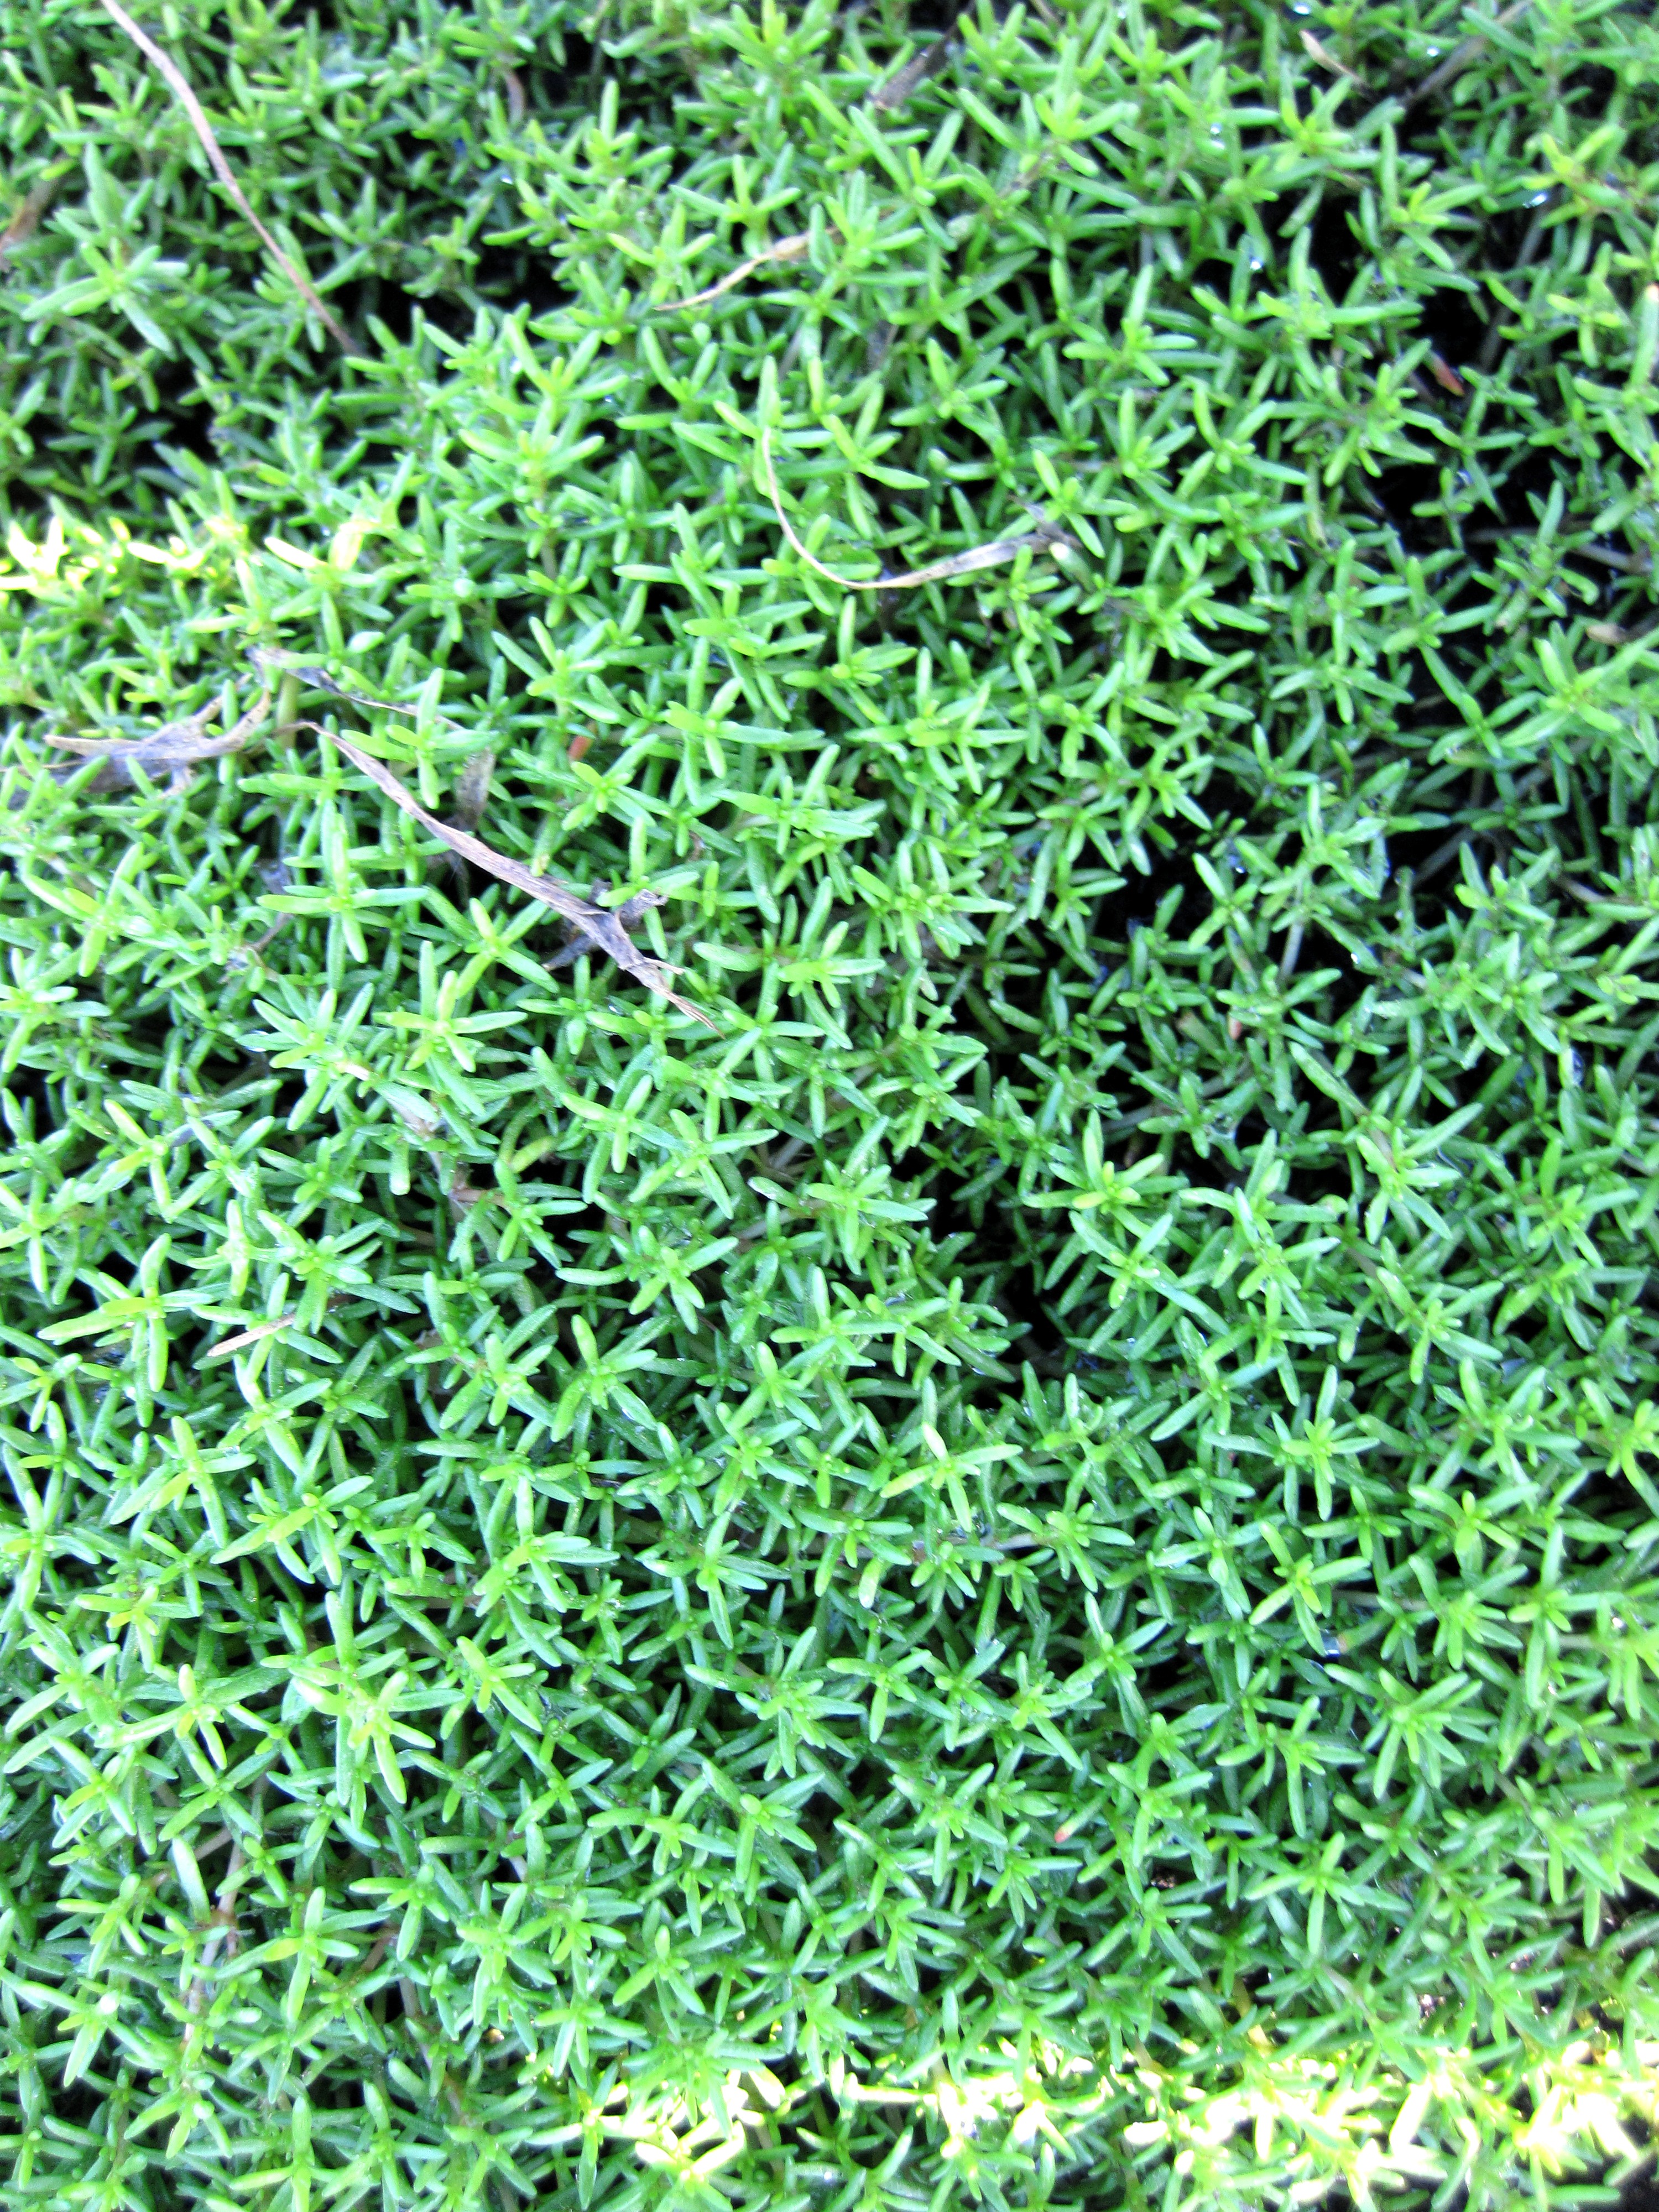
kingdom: Plantae
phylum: Tracheophyta
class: Magnoliopsida
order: Saxifragales
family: Crassulaceae
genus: Crassula
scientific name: Crassula ruamahanga
